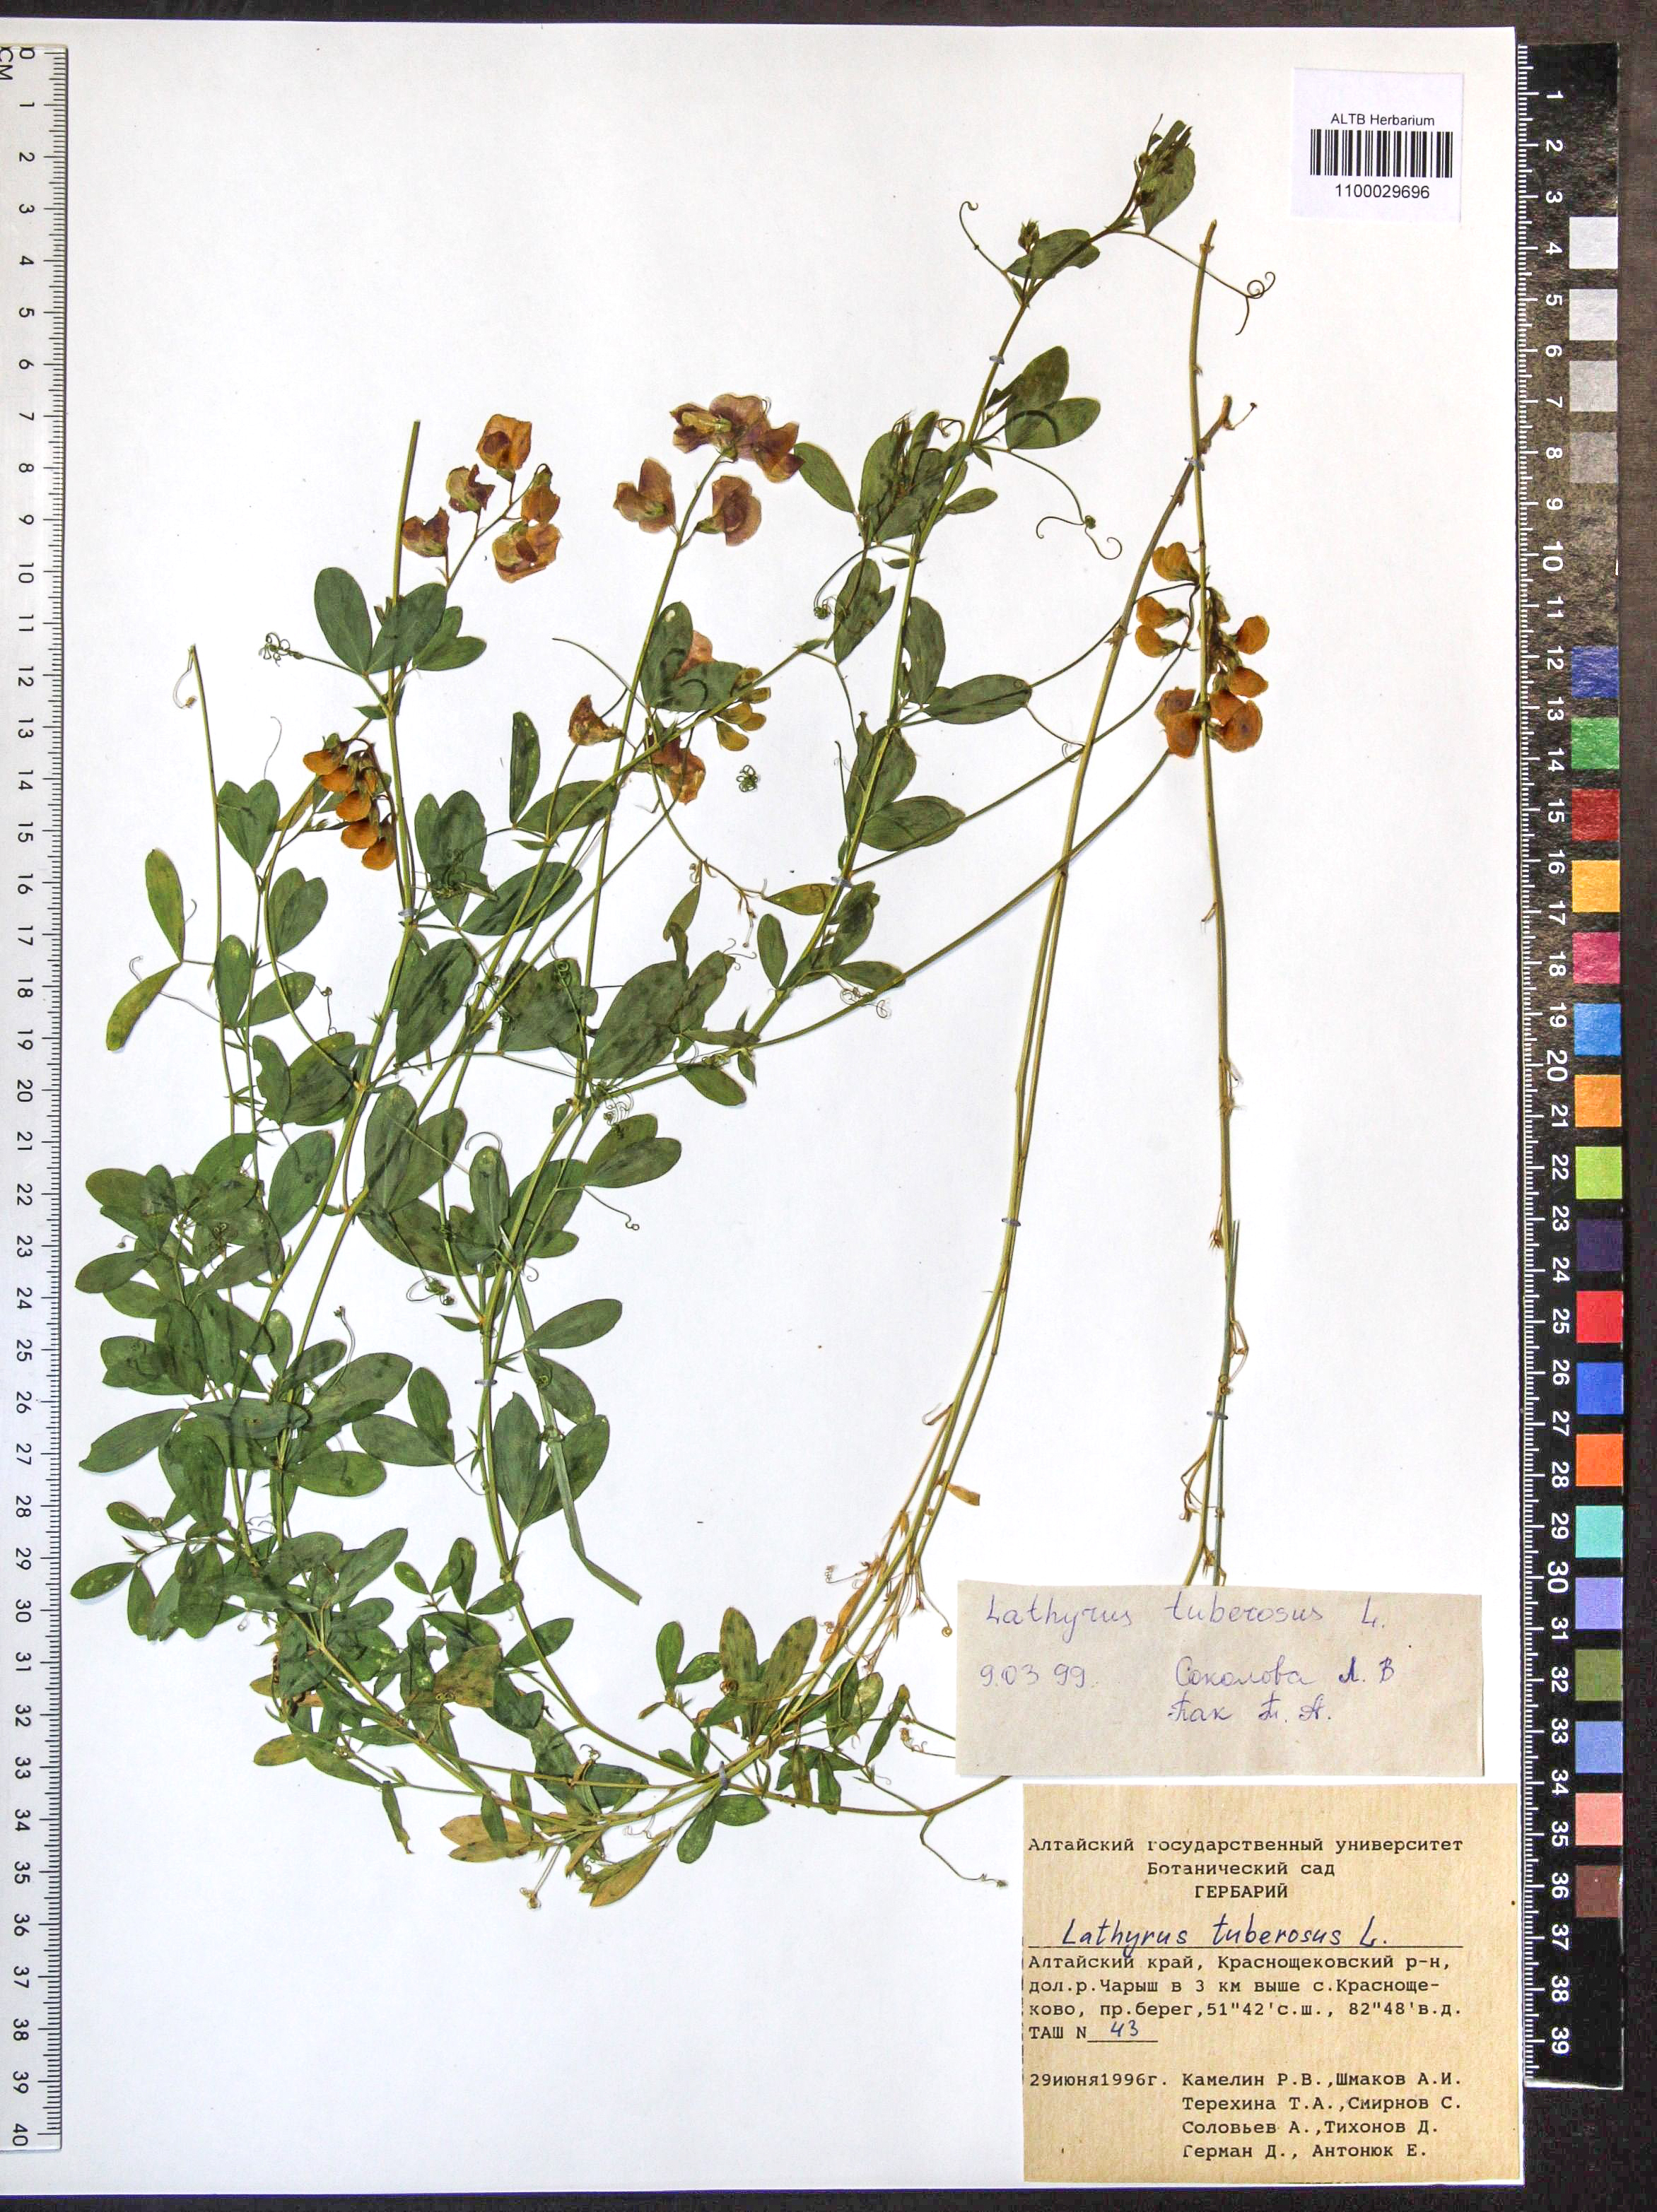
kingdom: Plantae
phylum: Tracheophyta
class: Magnoliopsida
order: Fabales
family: Fabaceae
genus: Lathyrus
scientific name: Lathyrus tuberosus
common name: Tuberous pea
